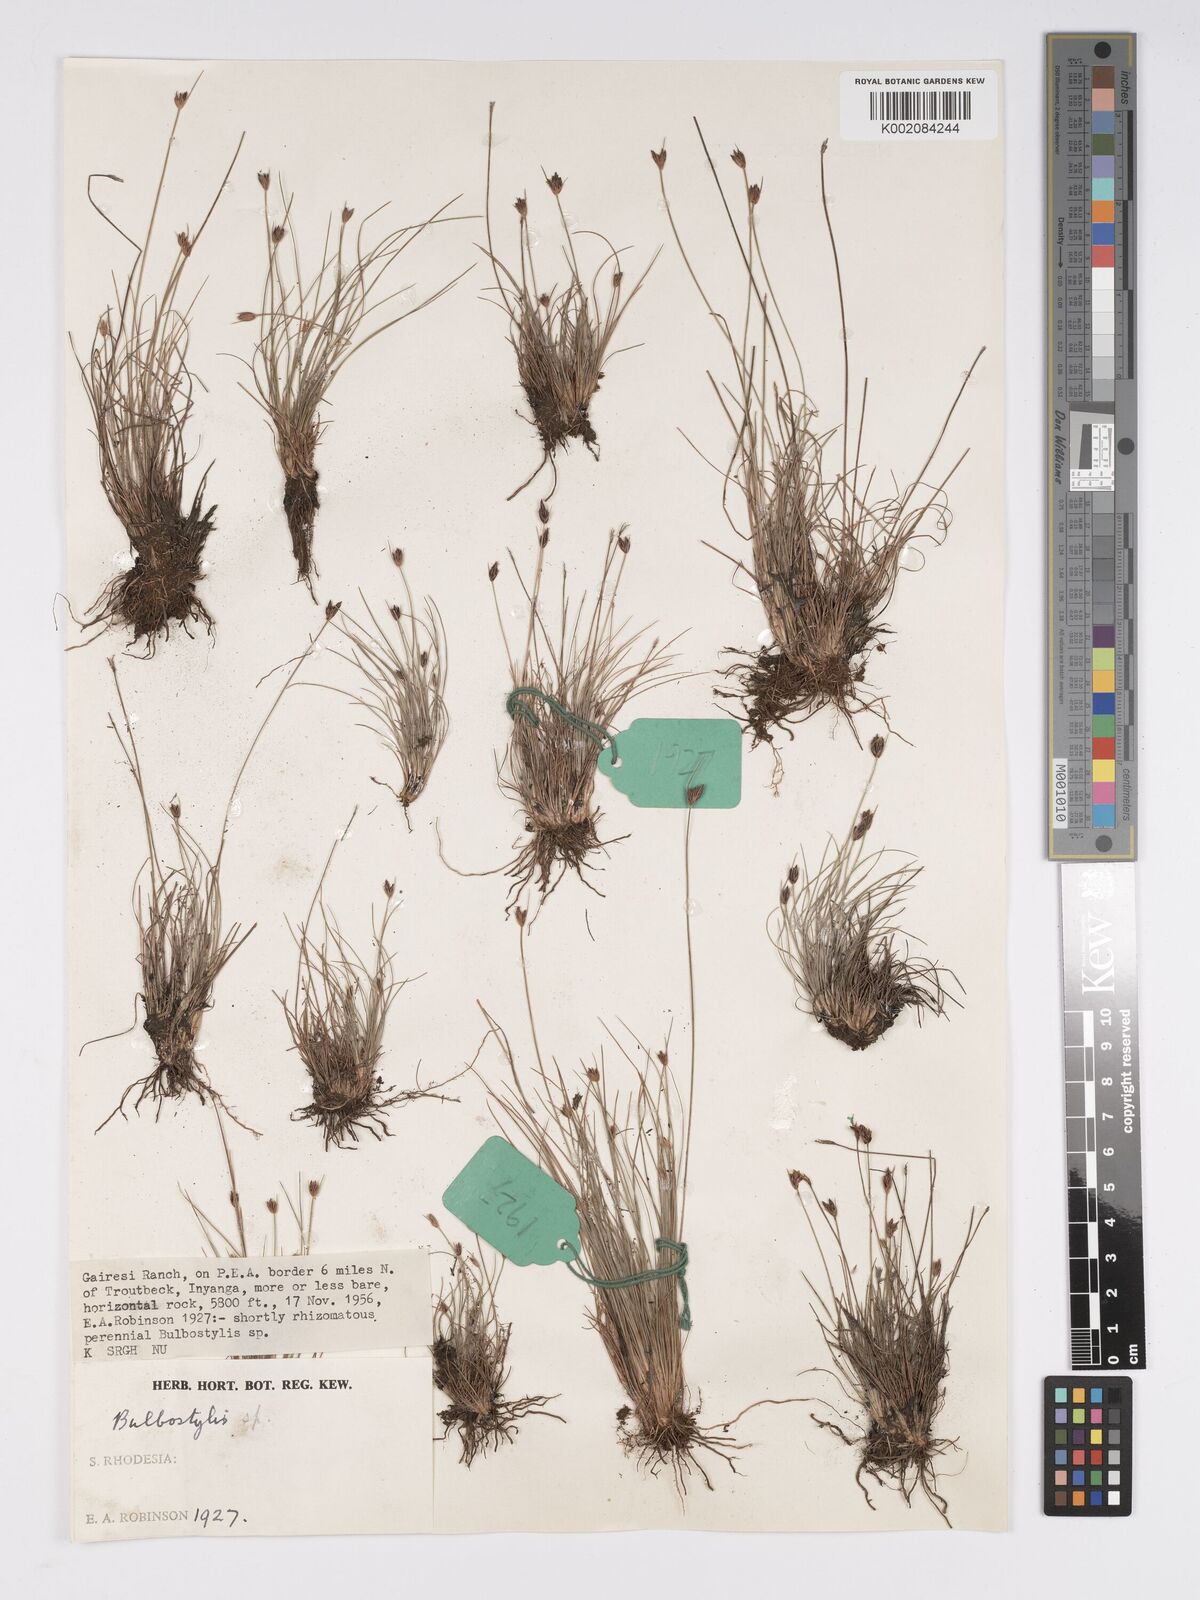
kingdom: Plantae
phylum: Tracheophyta
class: Liliopsida
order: Poales
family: Cyperaceae
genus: Bulbostylis
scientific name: Bulbostylis
